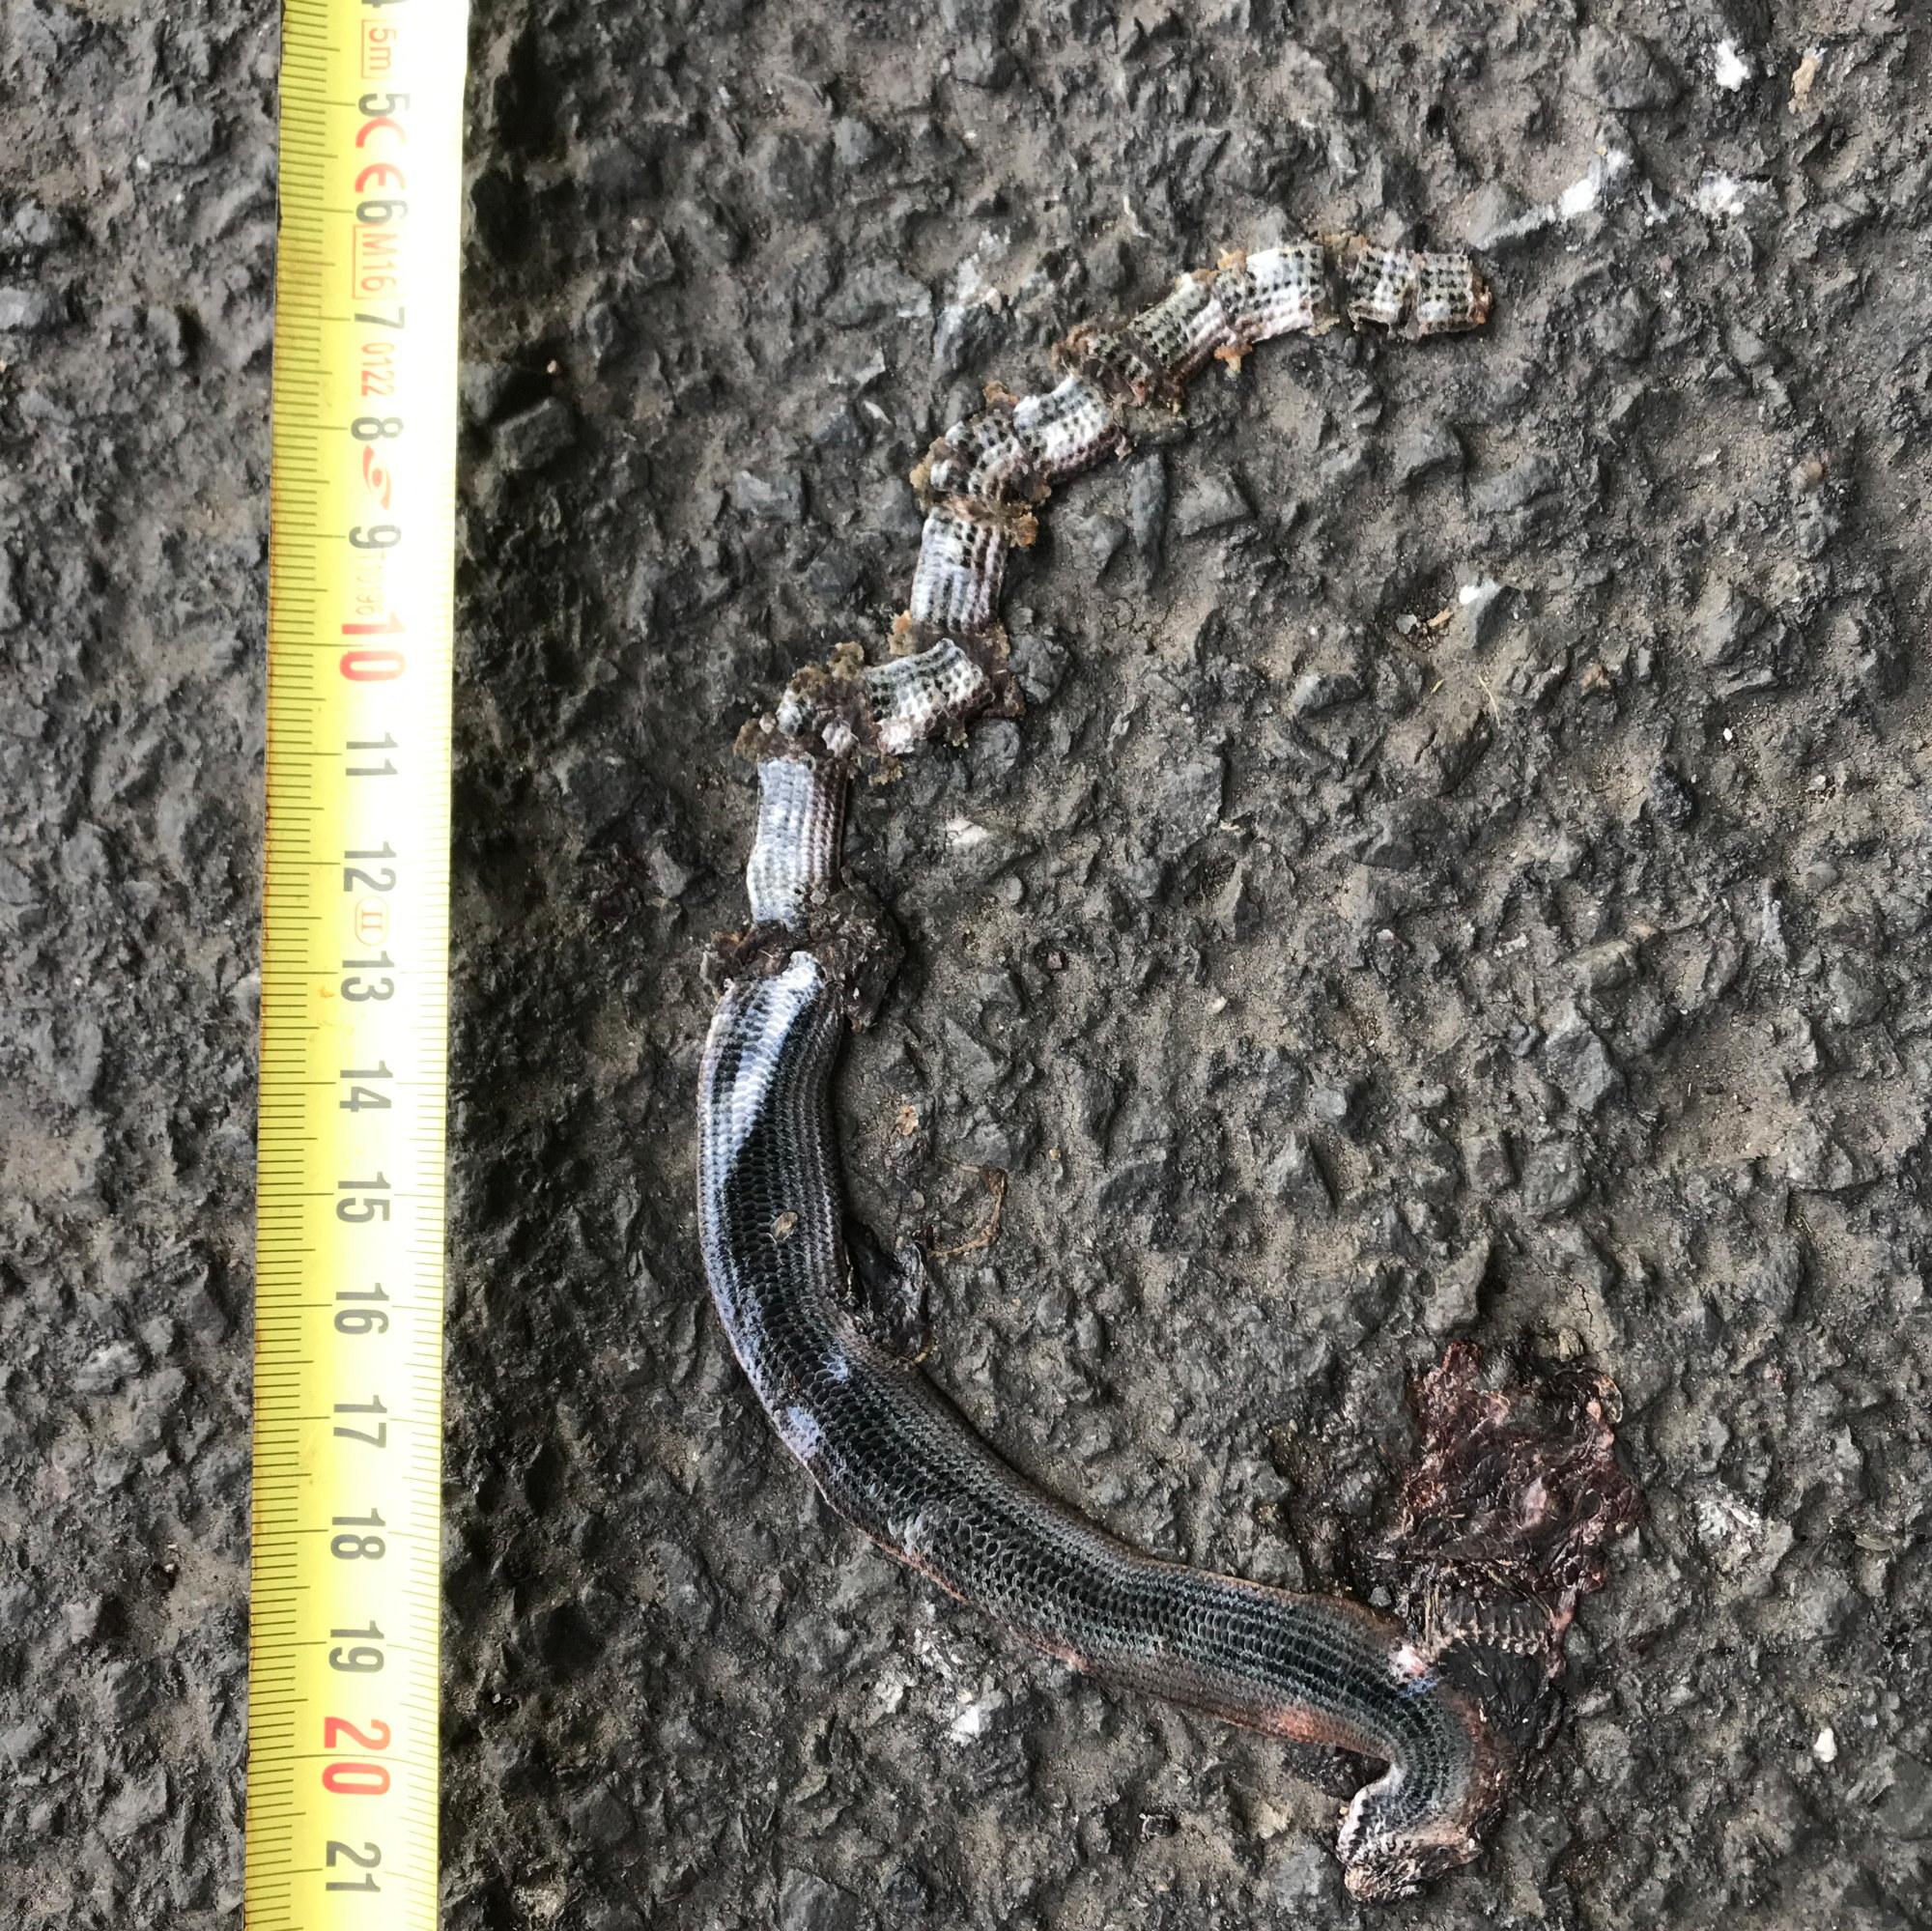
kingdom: Animalia
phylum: Chordata
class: Squamata
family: Anguidae
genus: Anguis
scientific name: Anguis fragilis
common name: Slow worm
